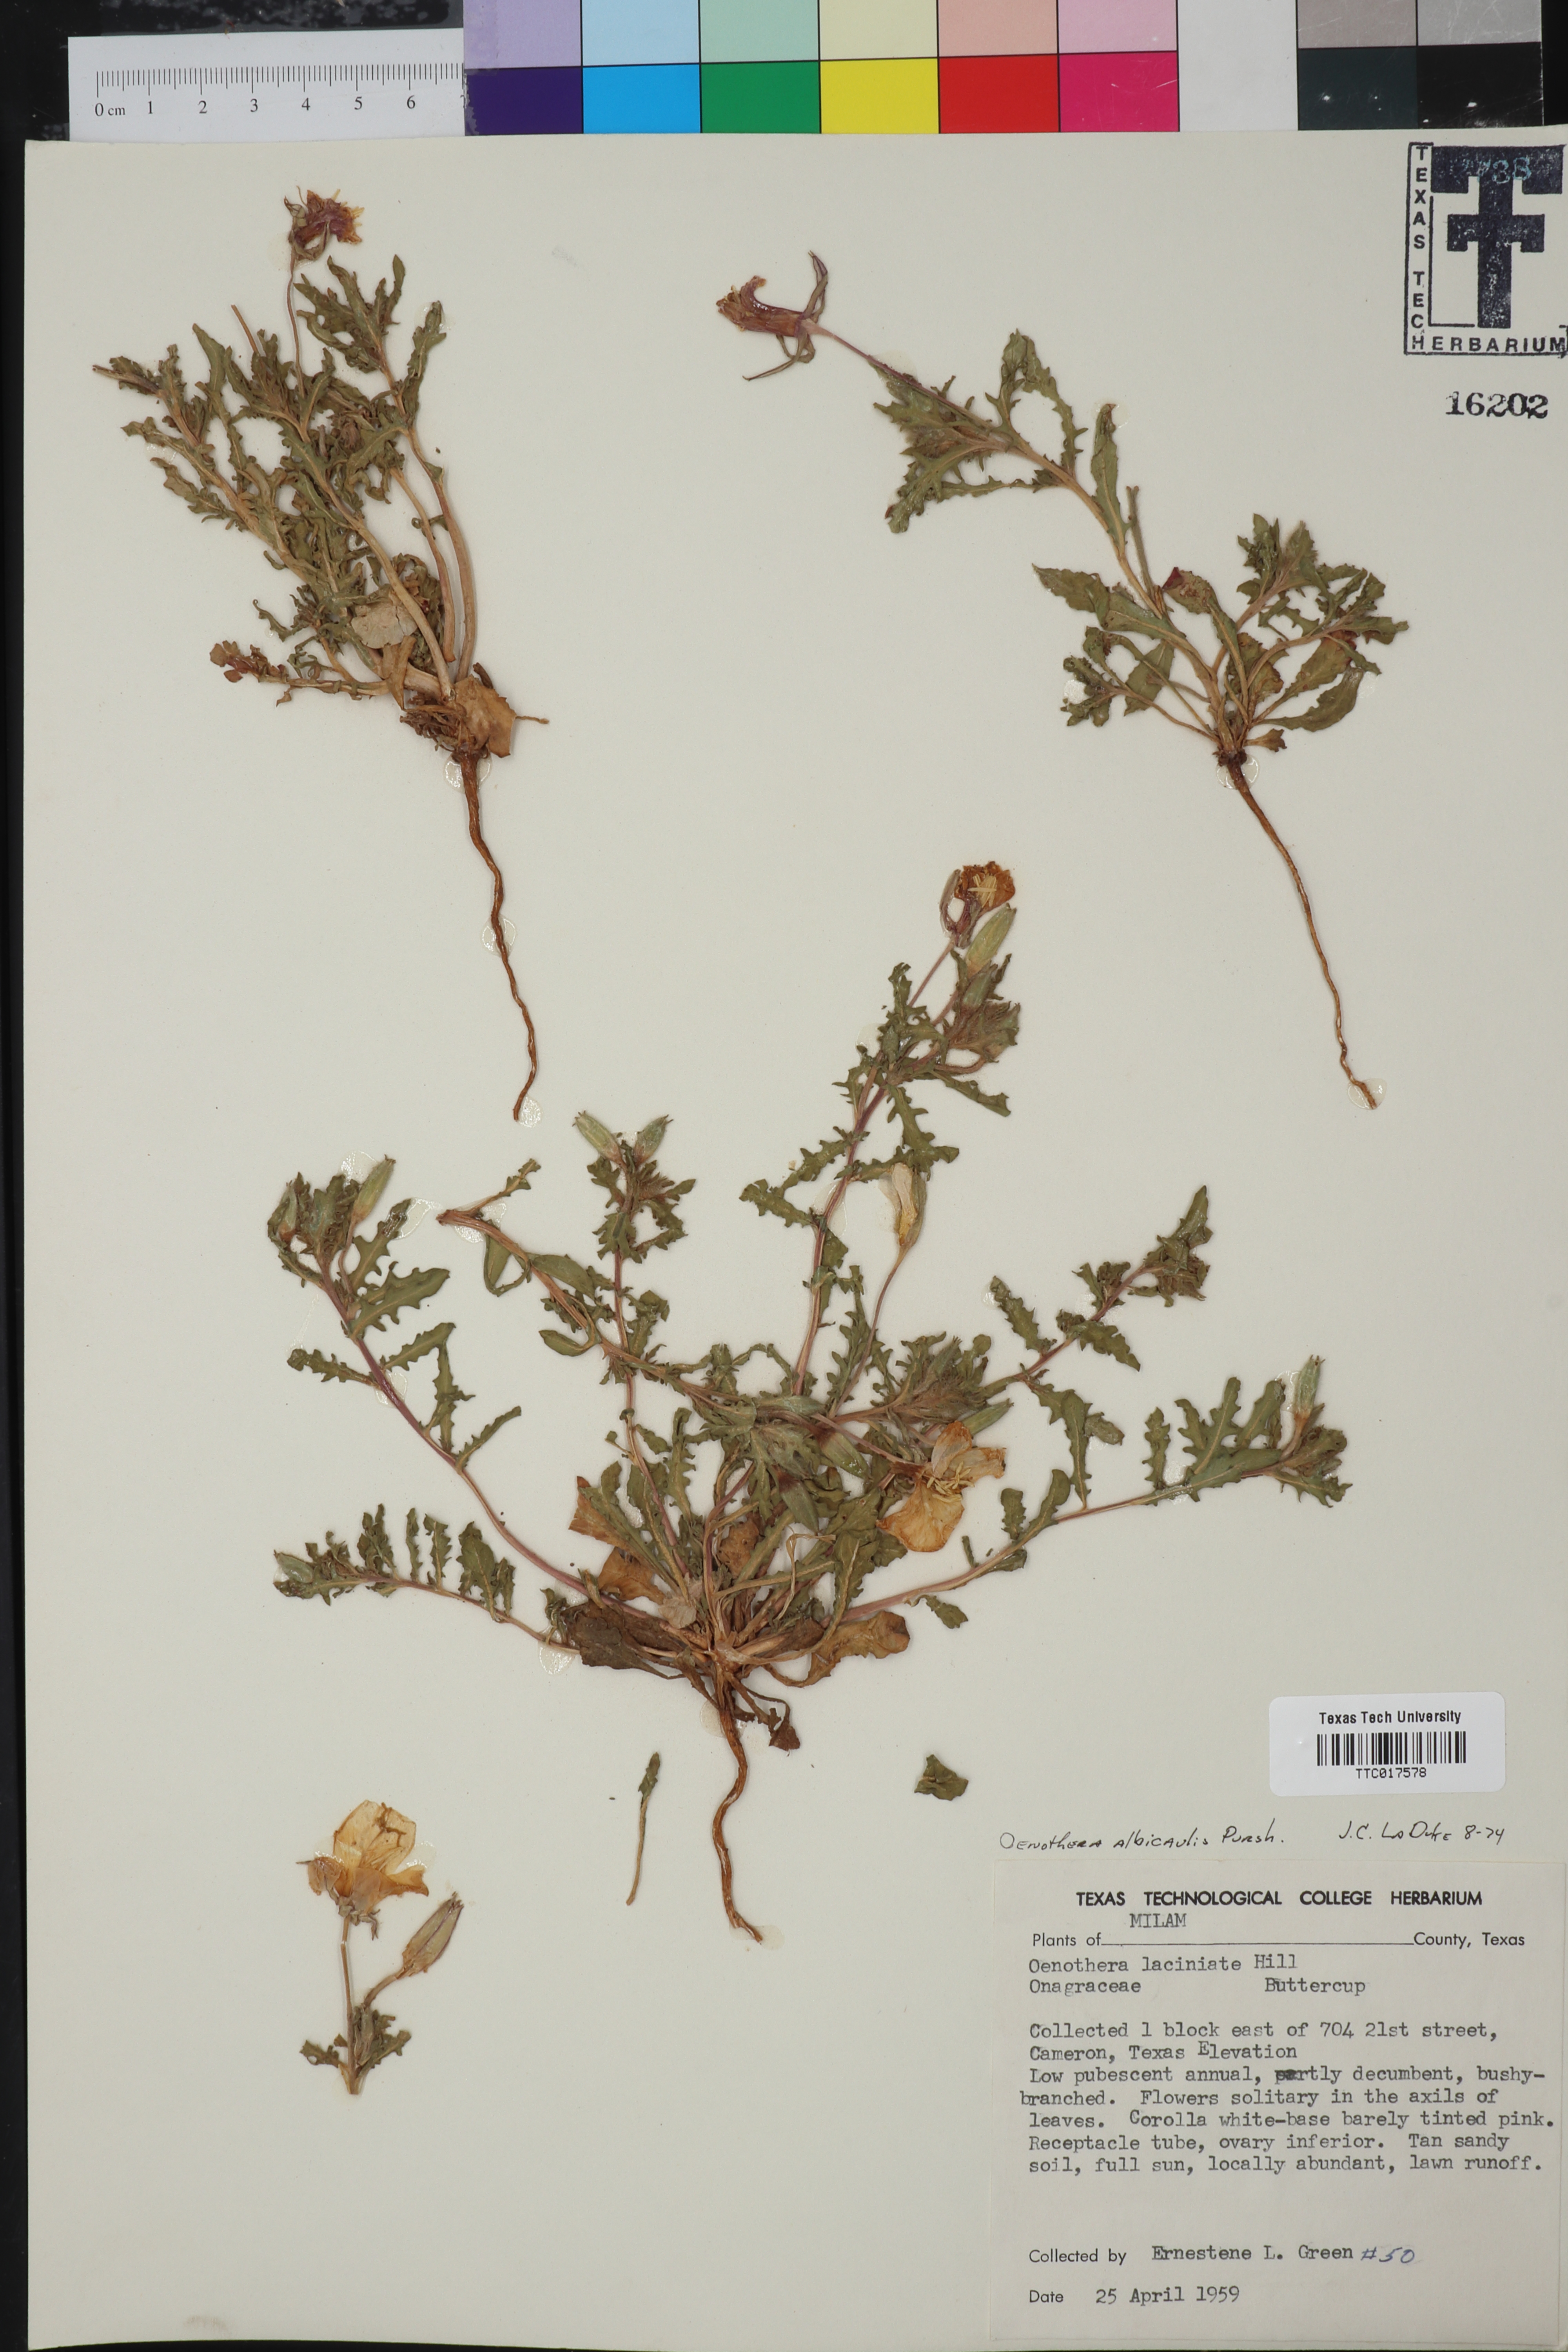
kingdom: Plantae
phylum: Tracheophyta
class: Magnoliopsida
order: Myrtales
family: Onagraceae
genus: Oenothera
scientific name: Oenothera albicaulis
